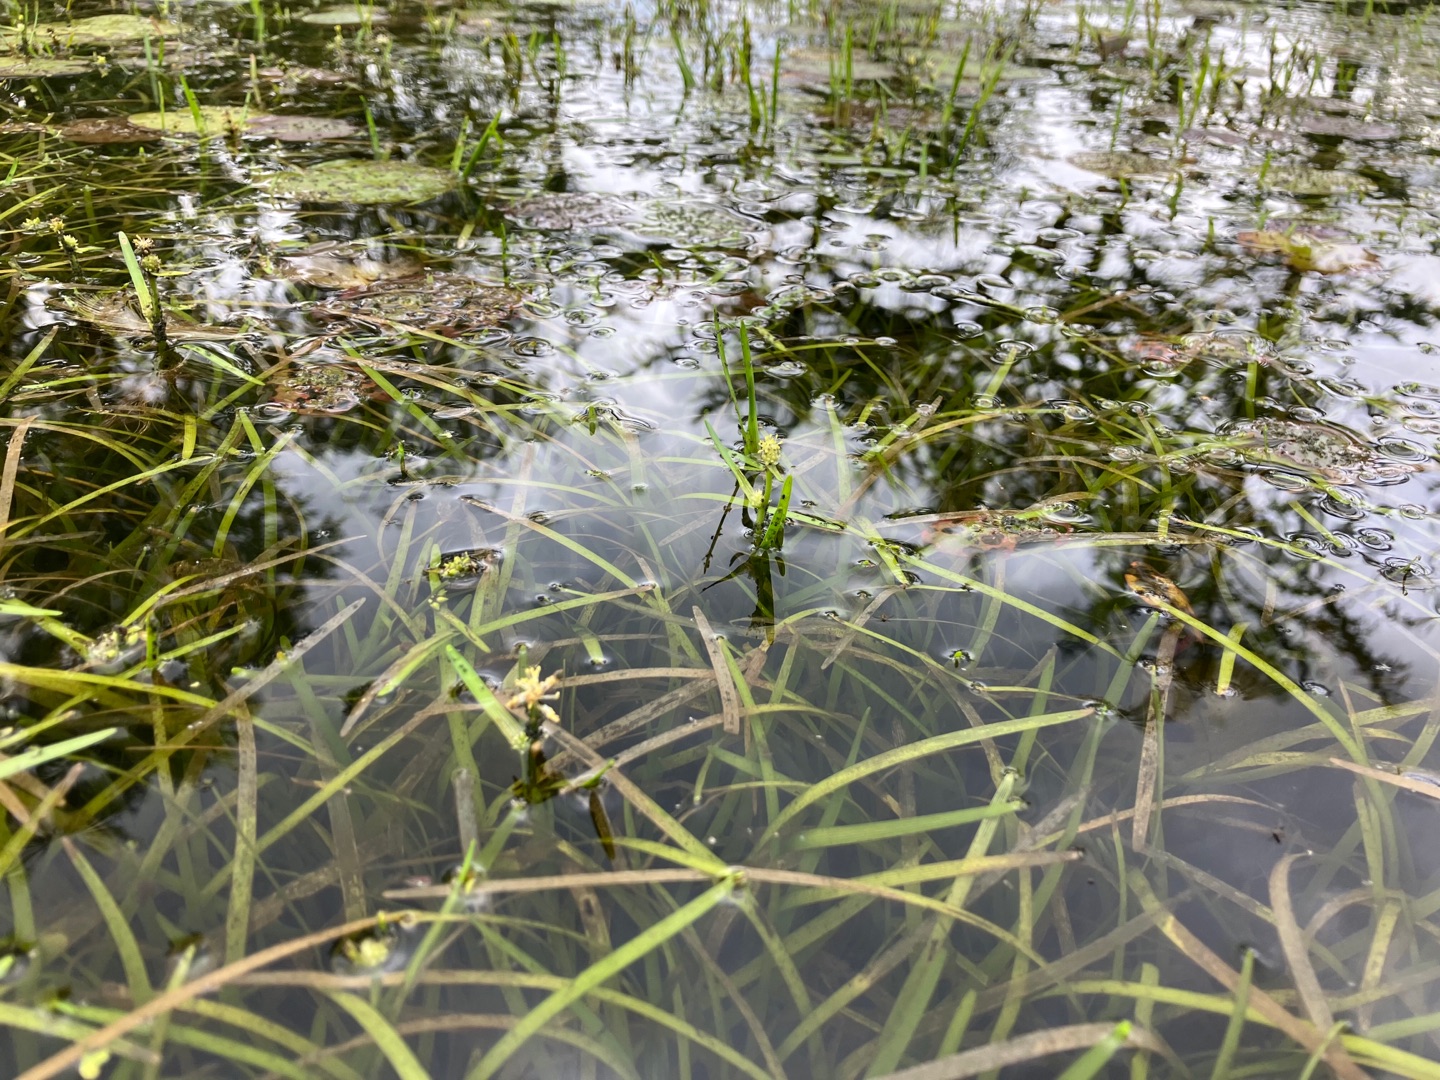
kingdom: Plantae
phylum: Tracheophyta
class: Liliopsida
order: Poales
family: Typhaceae
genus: Sparganium
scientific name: Sparganium natans
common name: Spæd pindsvineknop
